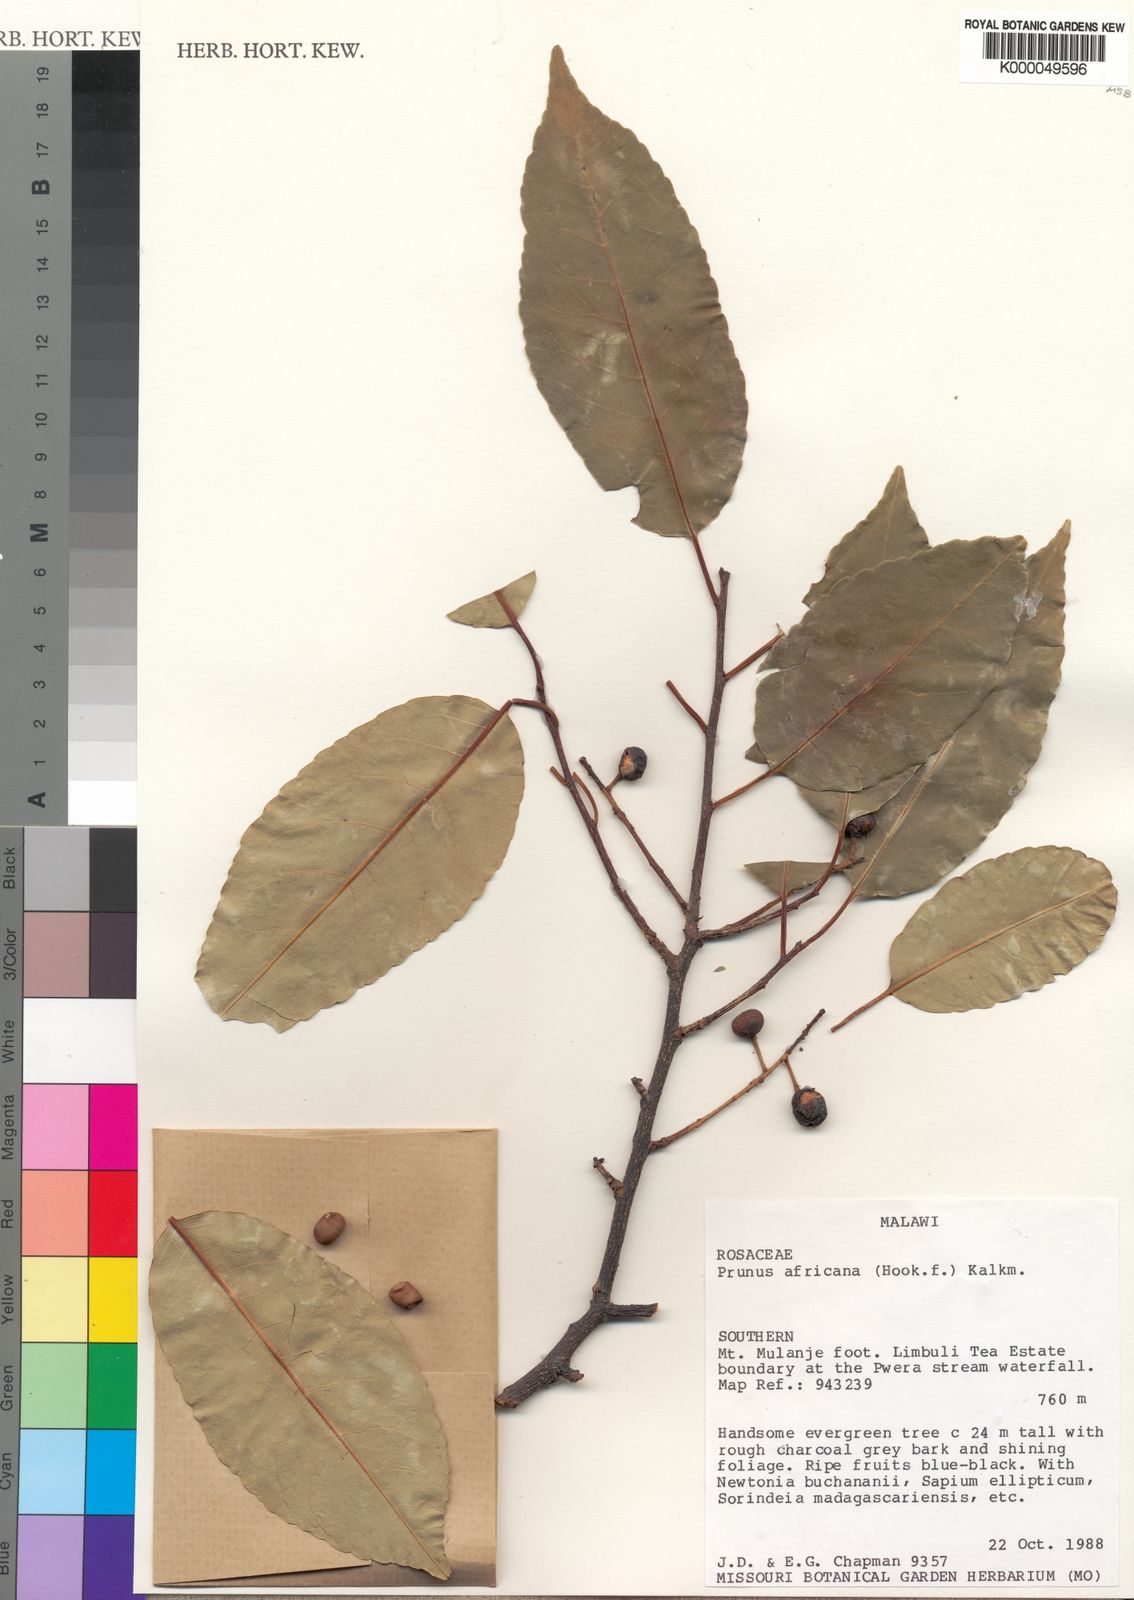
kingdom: Plantae
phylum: Tracheophyta
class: Magnoliopsida
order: Rosales
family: Rosaceae
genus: Prunus
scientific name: Prunus africana
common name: African cherry
